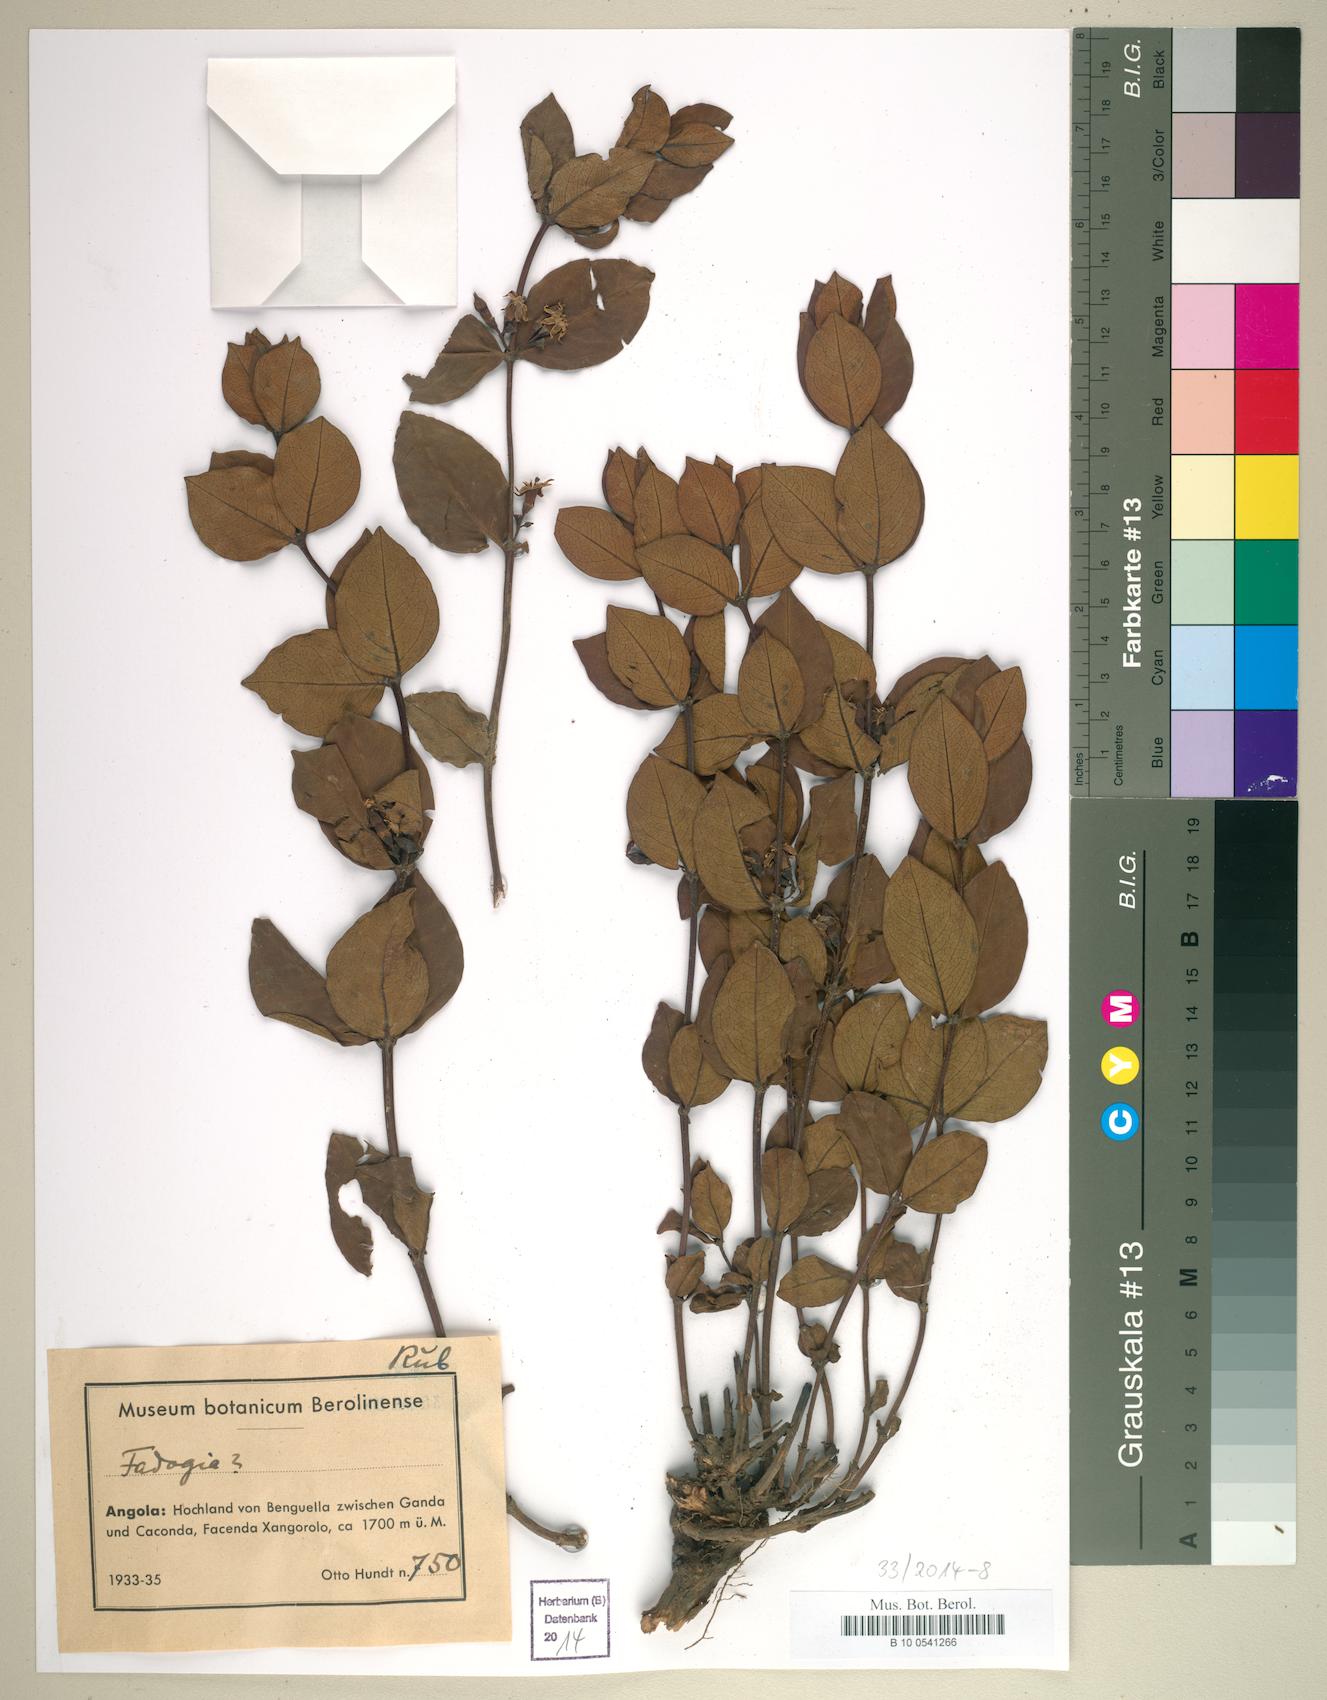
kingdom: Plantae
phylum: Tracheophyta
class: Magnoliopsida
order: Gentianales
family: Rubiaceae
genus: Fadogia
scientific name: Fadogia
